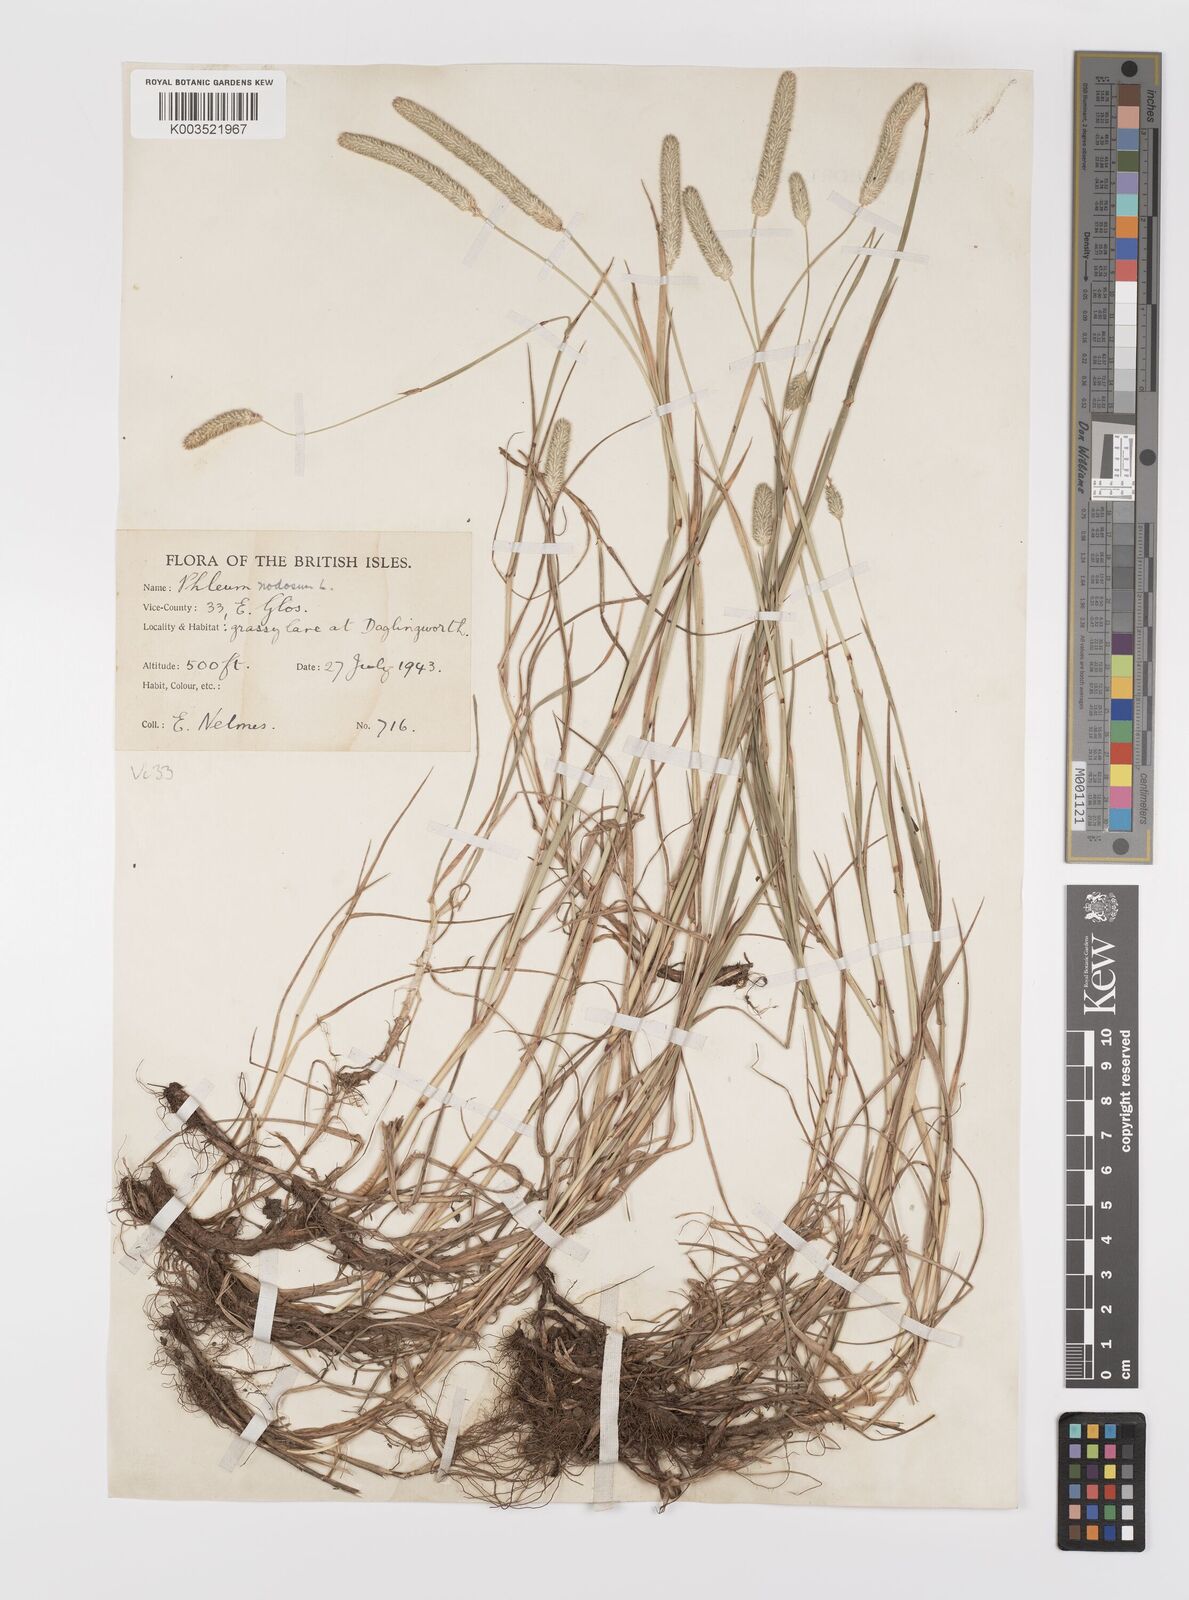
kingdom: Plantae
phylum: Tracheophyta
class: Liliopsida
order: Poales
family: Poaceae
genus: Phleum
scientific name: Phleum bertolonii
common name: Smaller cat's-tail
